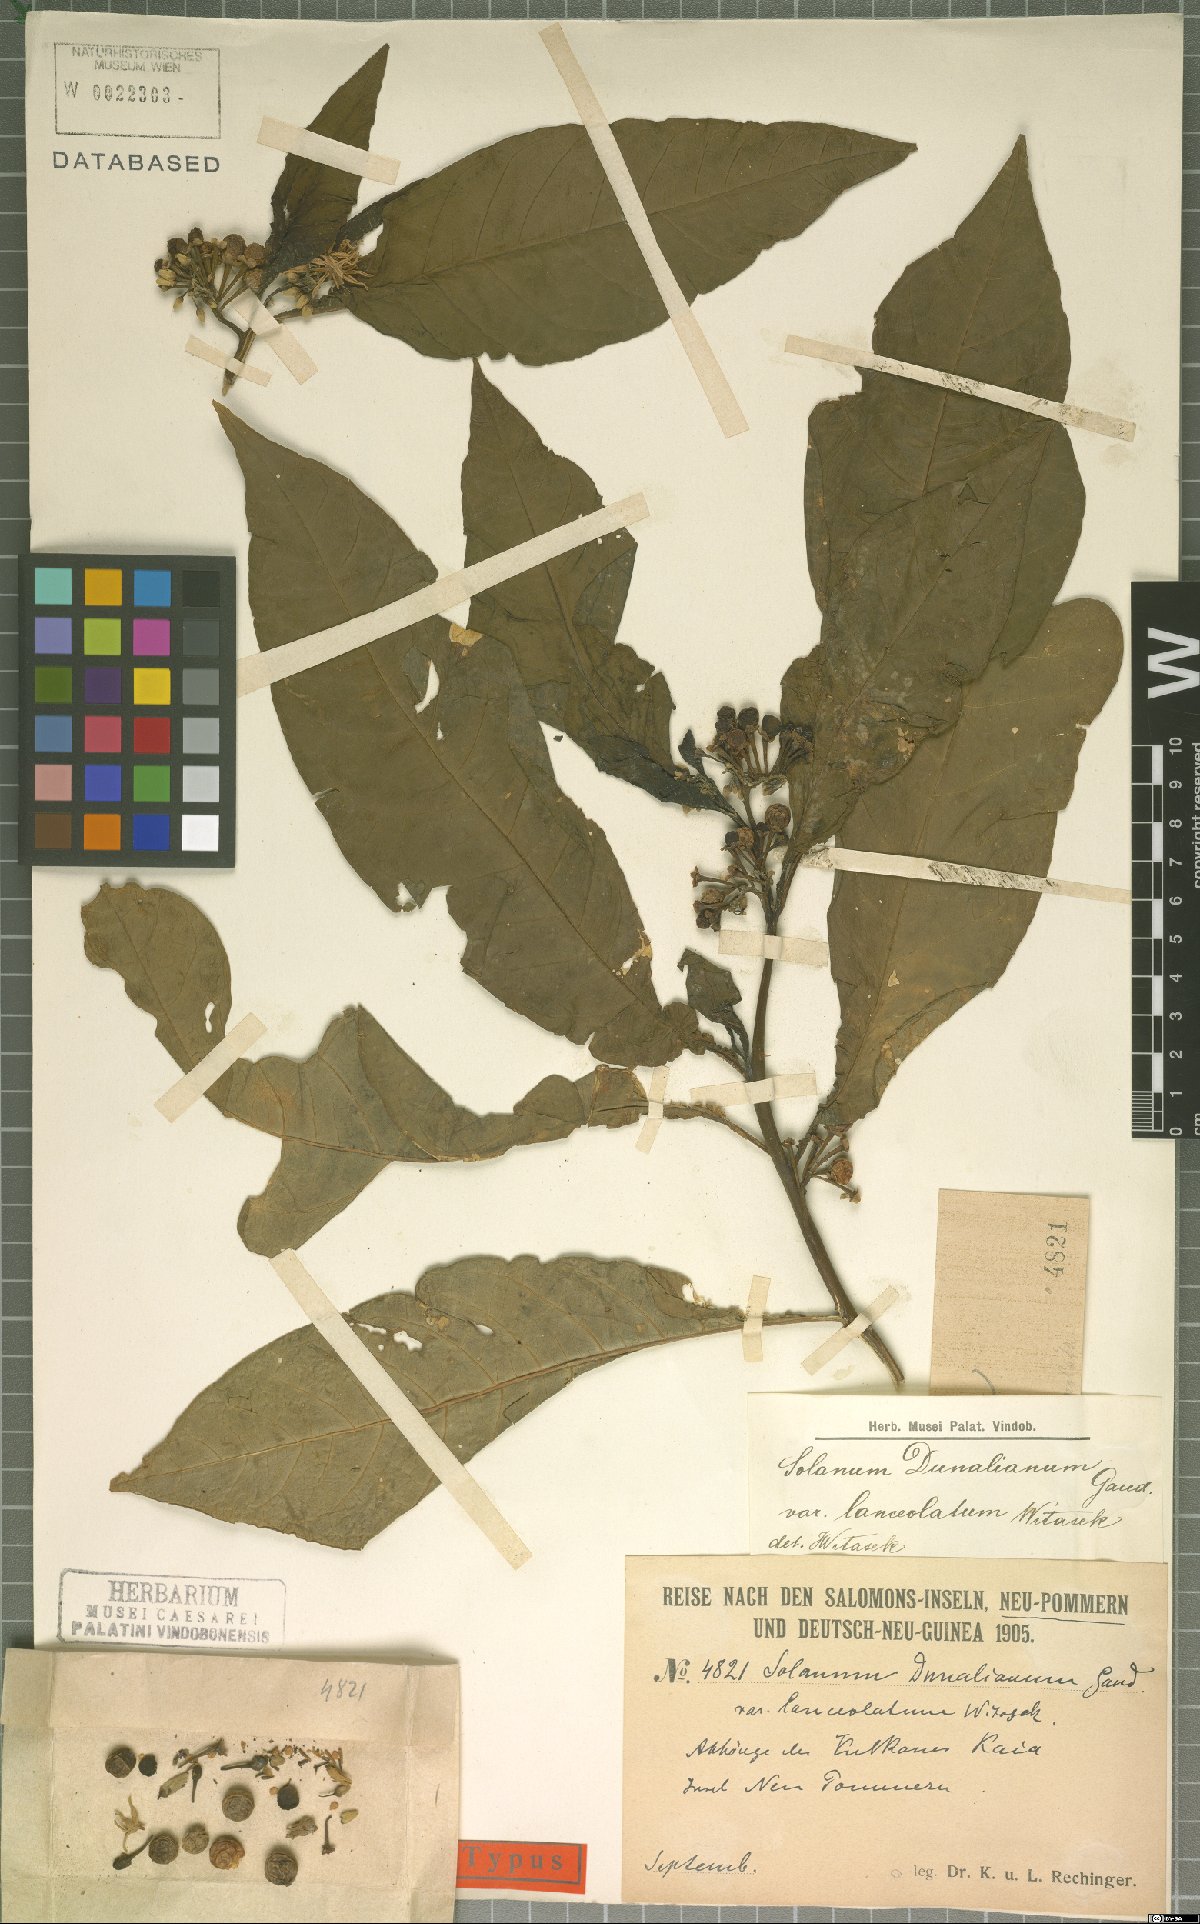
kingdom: Plantae
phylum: Tracheophyta
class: Magnoliopsida
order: Solanales
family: Solanaceae
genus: Solanum
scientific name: Solanum dunalianum
